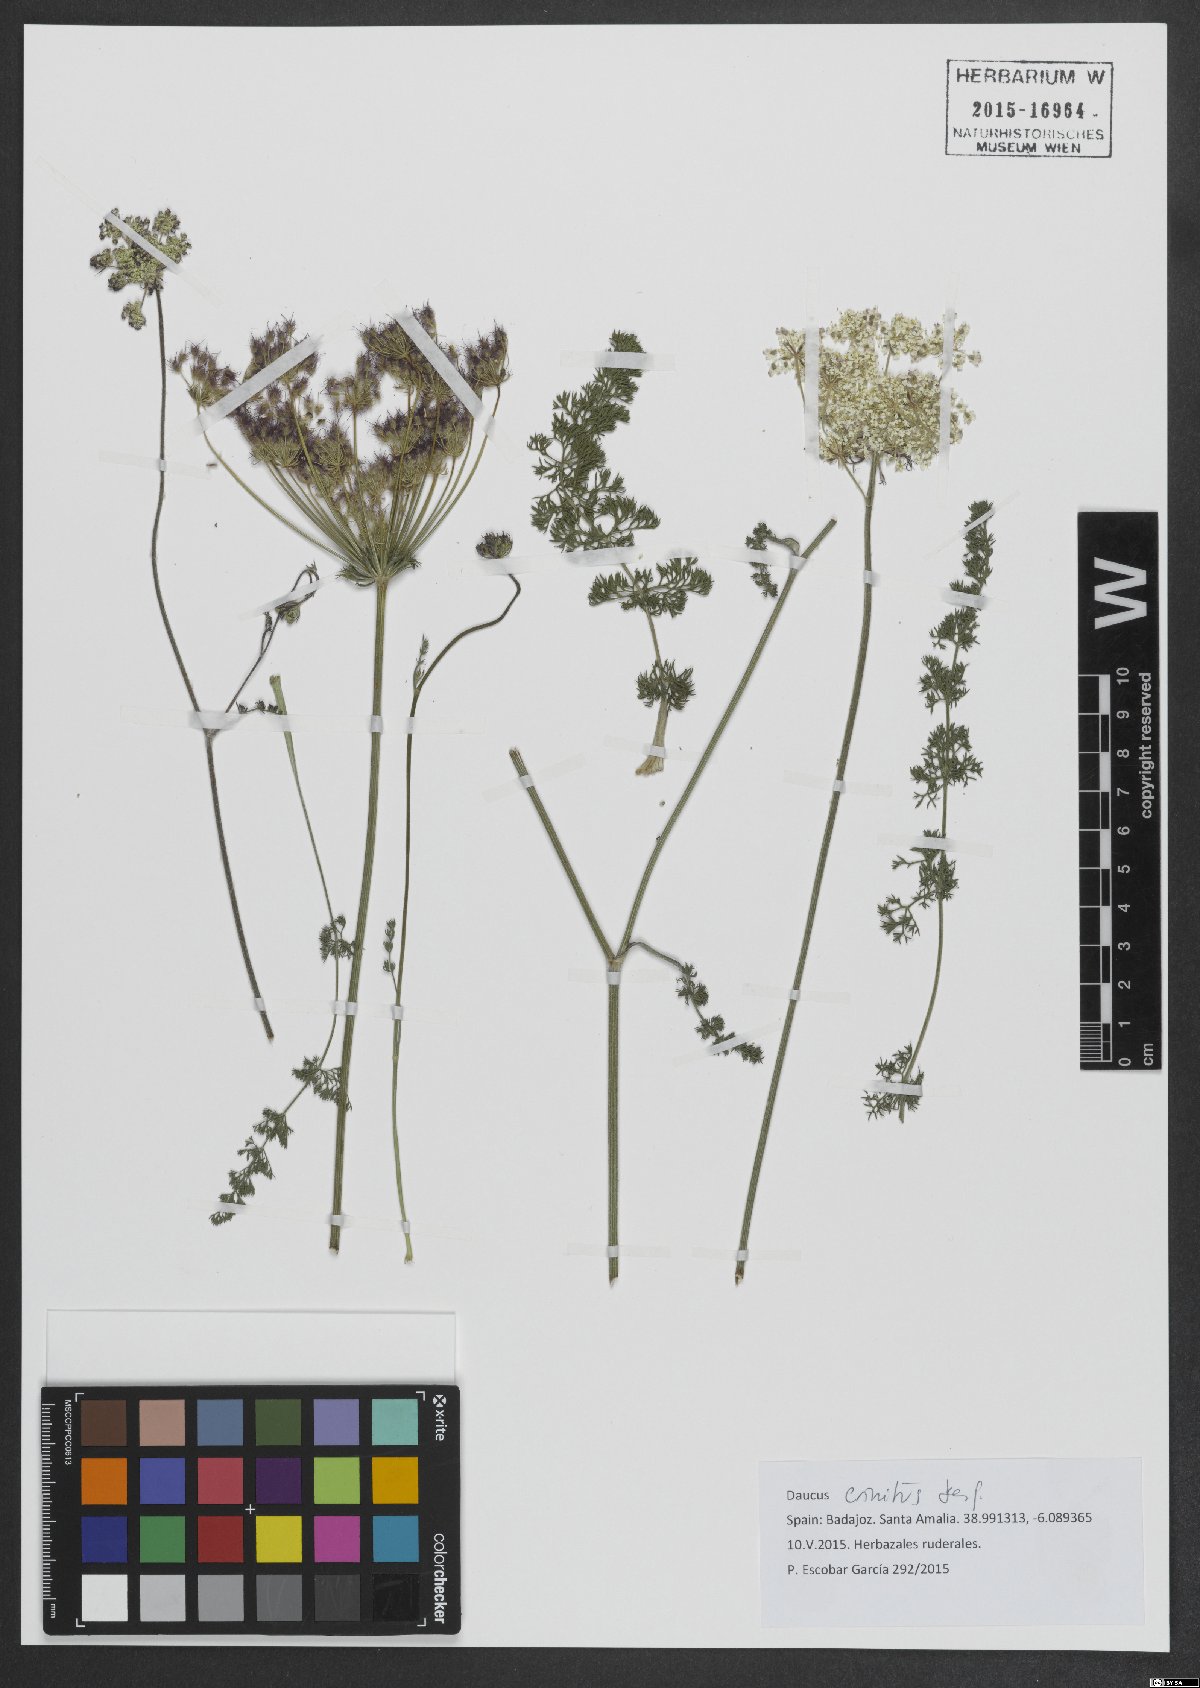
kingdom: Plantae
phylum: Tracheophyta
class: Magnoliopsida
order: Apiales
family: Apiaceae
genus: Daucus
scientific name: Daucus crinitus
